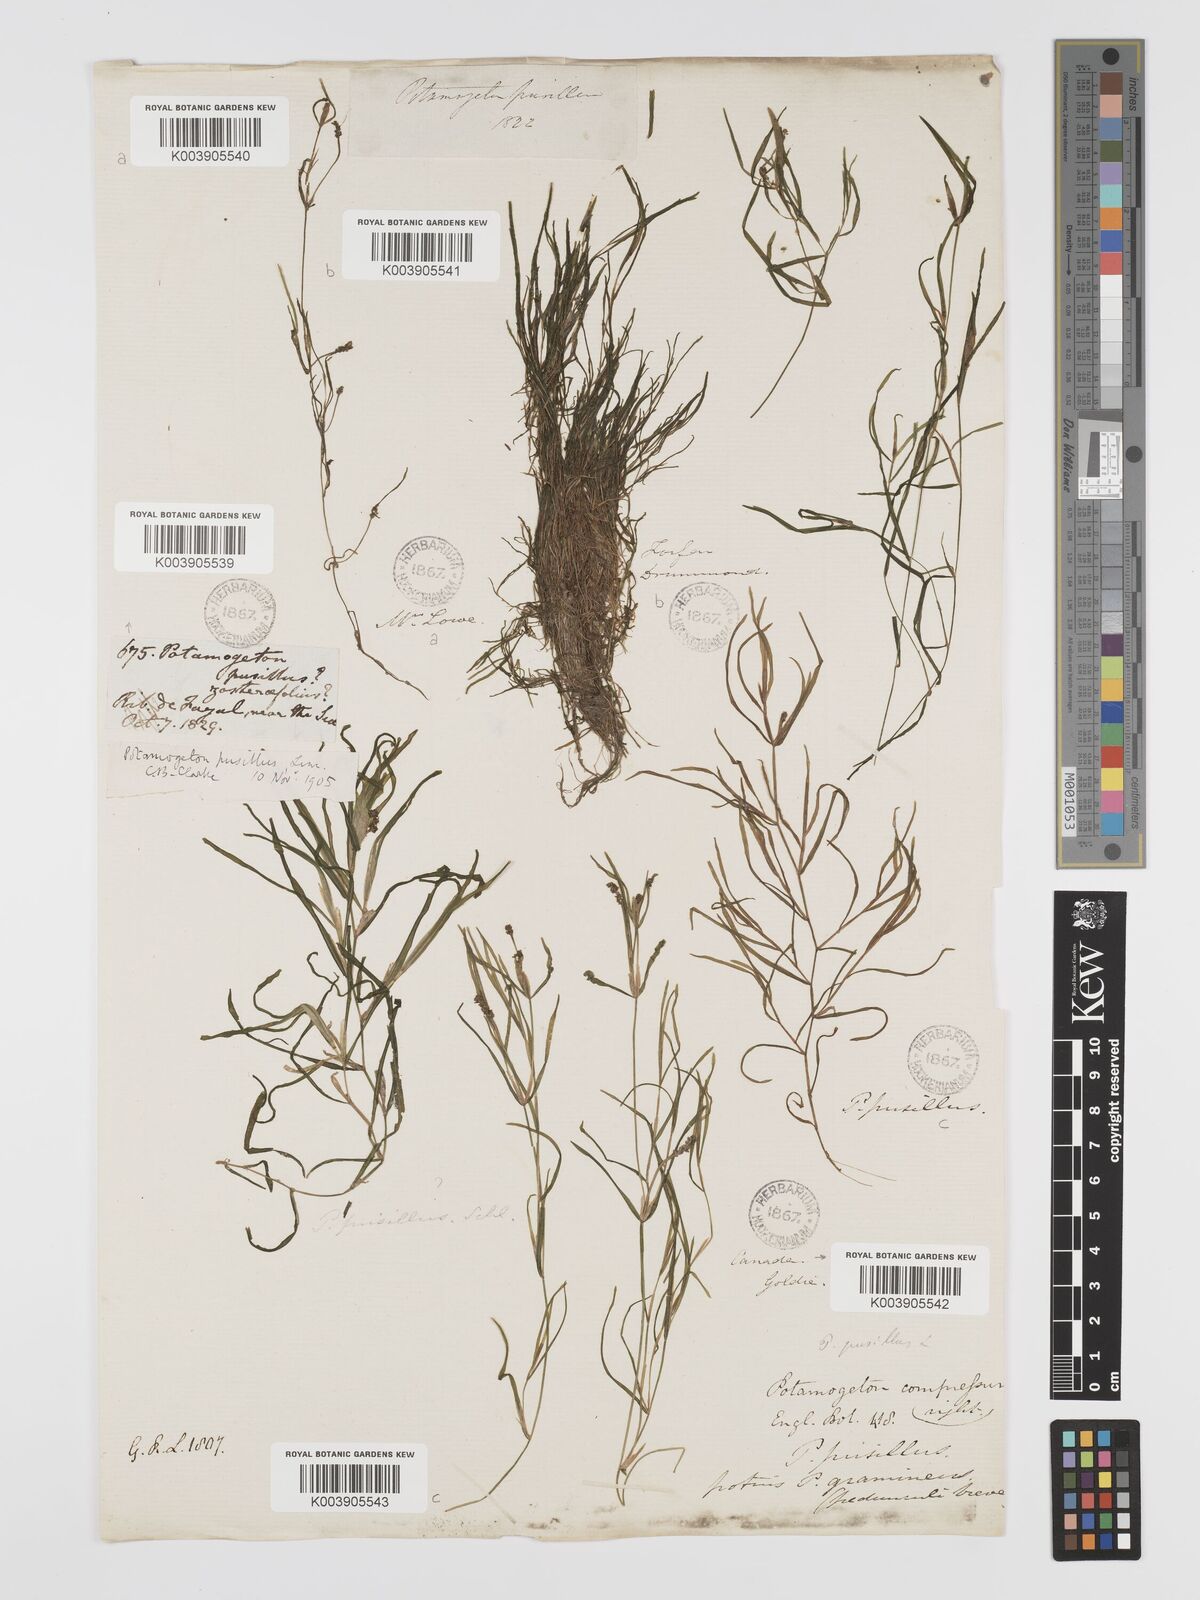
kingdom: Plantae
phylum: Tracheophyta
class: Liliopsida
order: Alismatales
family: Potamogetonaceae
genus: Potamogeton
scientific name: Potamogeton pusillus
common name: Lesser pondweed
